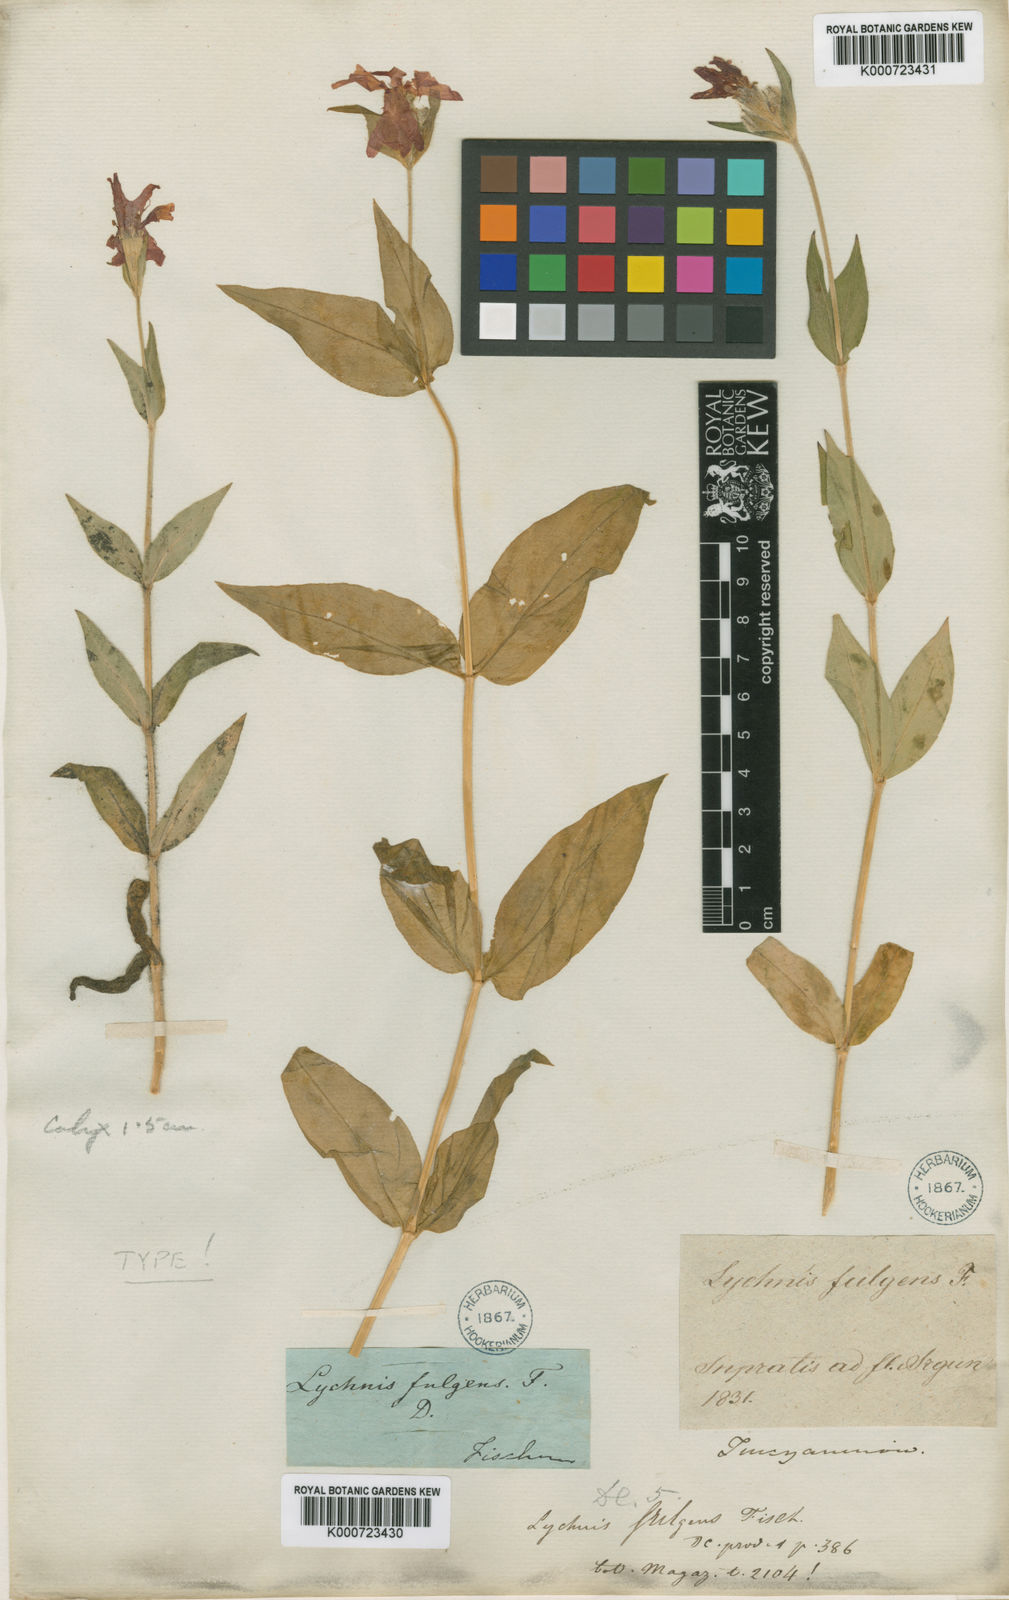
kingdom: Plantae
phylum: Tracheophyta
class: Magnoliopsida
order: Caryophyllales
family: Caryophyllaceae
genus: Silene
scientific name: Silene
